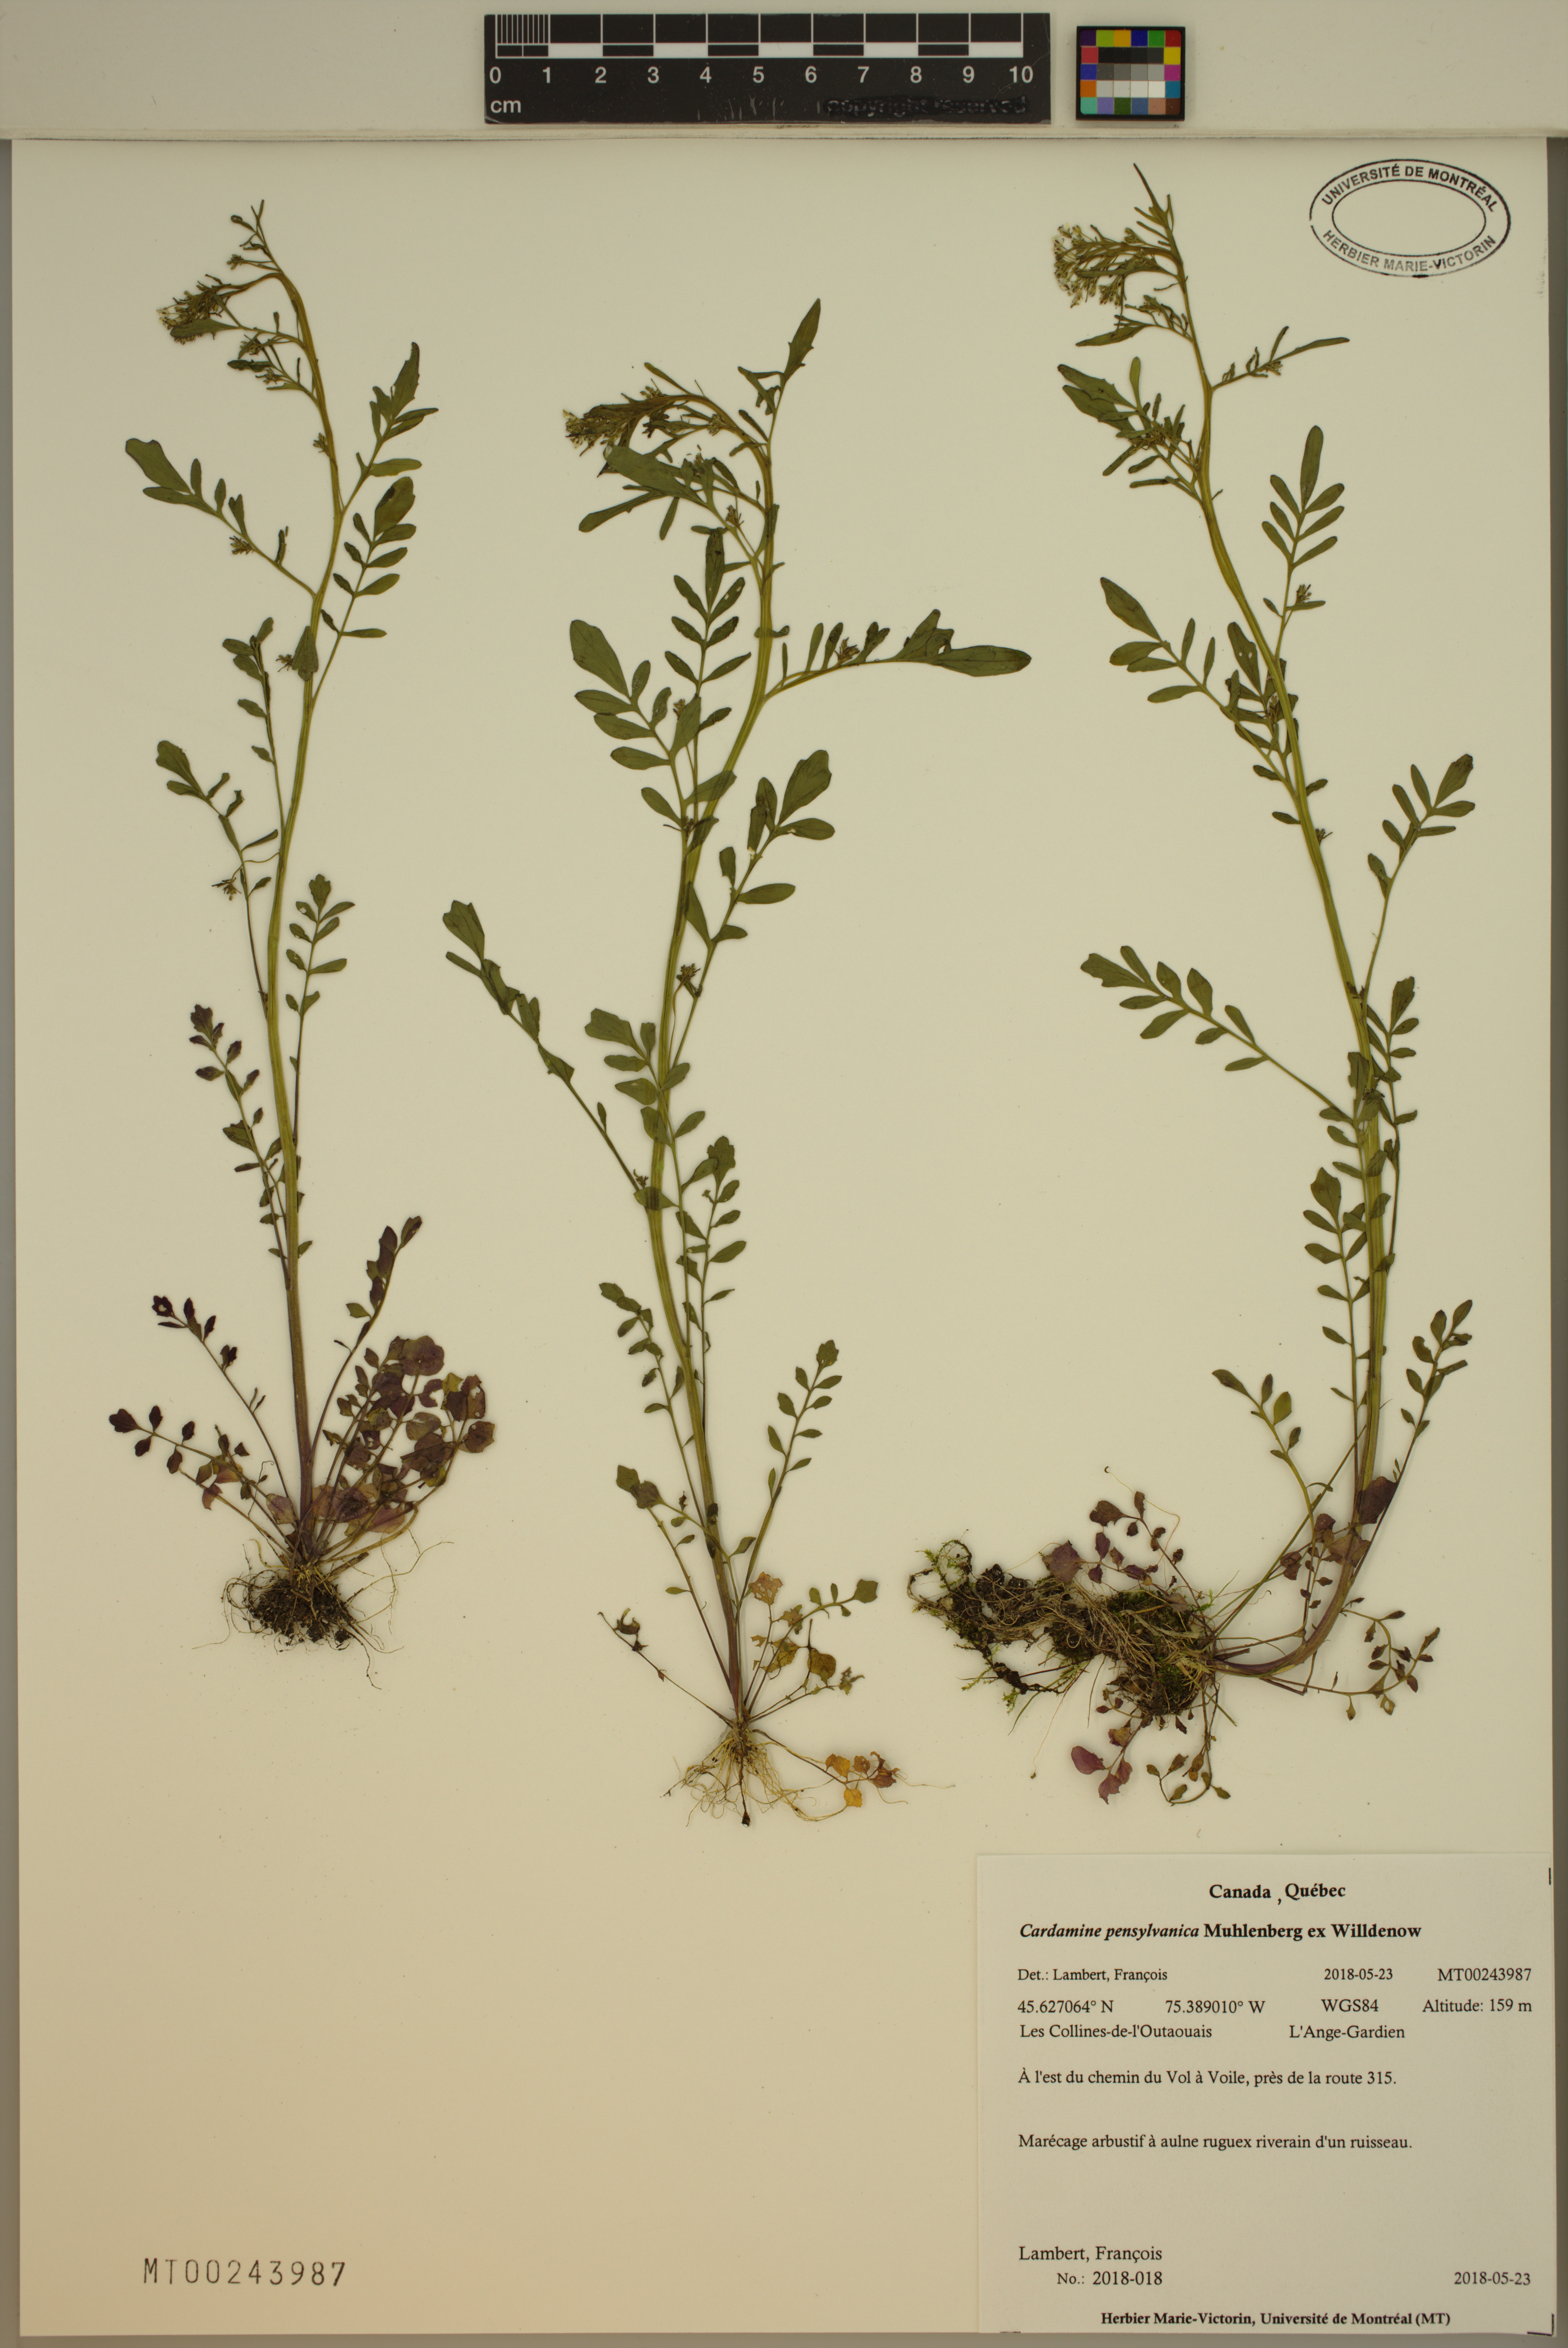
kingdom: Plantae
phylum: Tracheophyta
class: Magnoliopsida
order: Brassicales
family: Brassicaceae
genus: Cardamine
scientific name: Cardamine pensylvanica
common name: Pennsylvania bittercress
